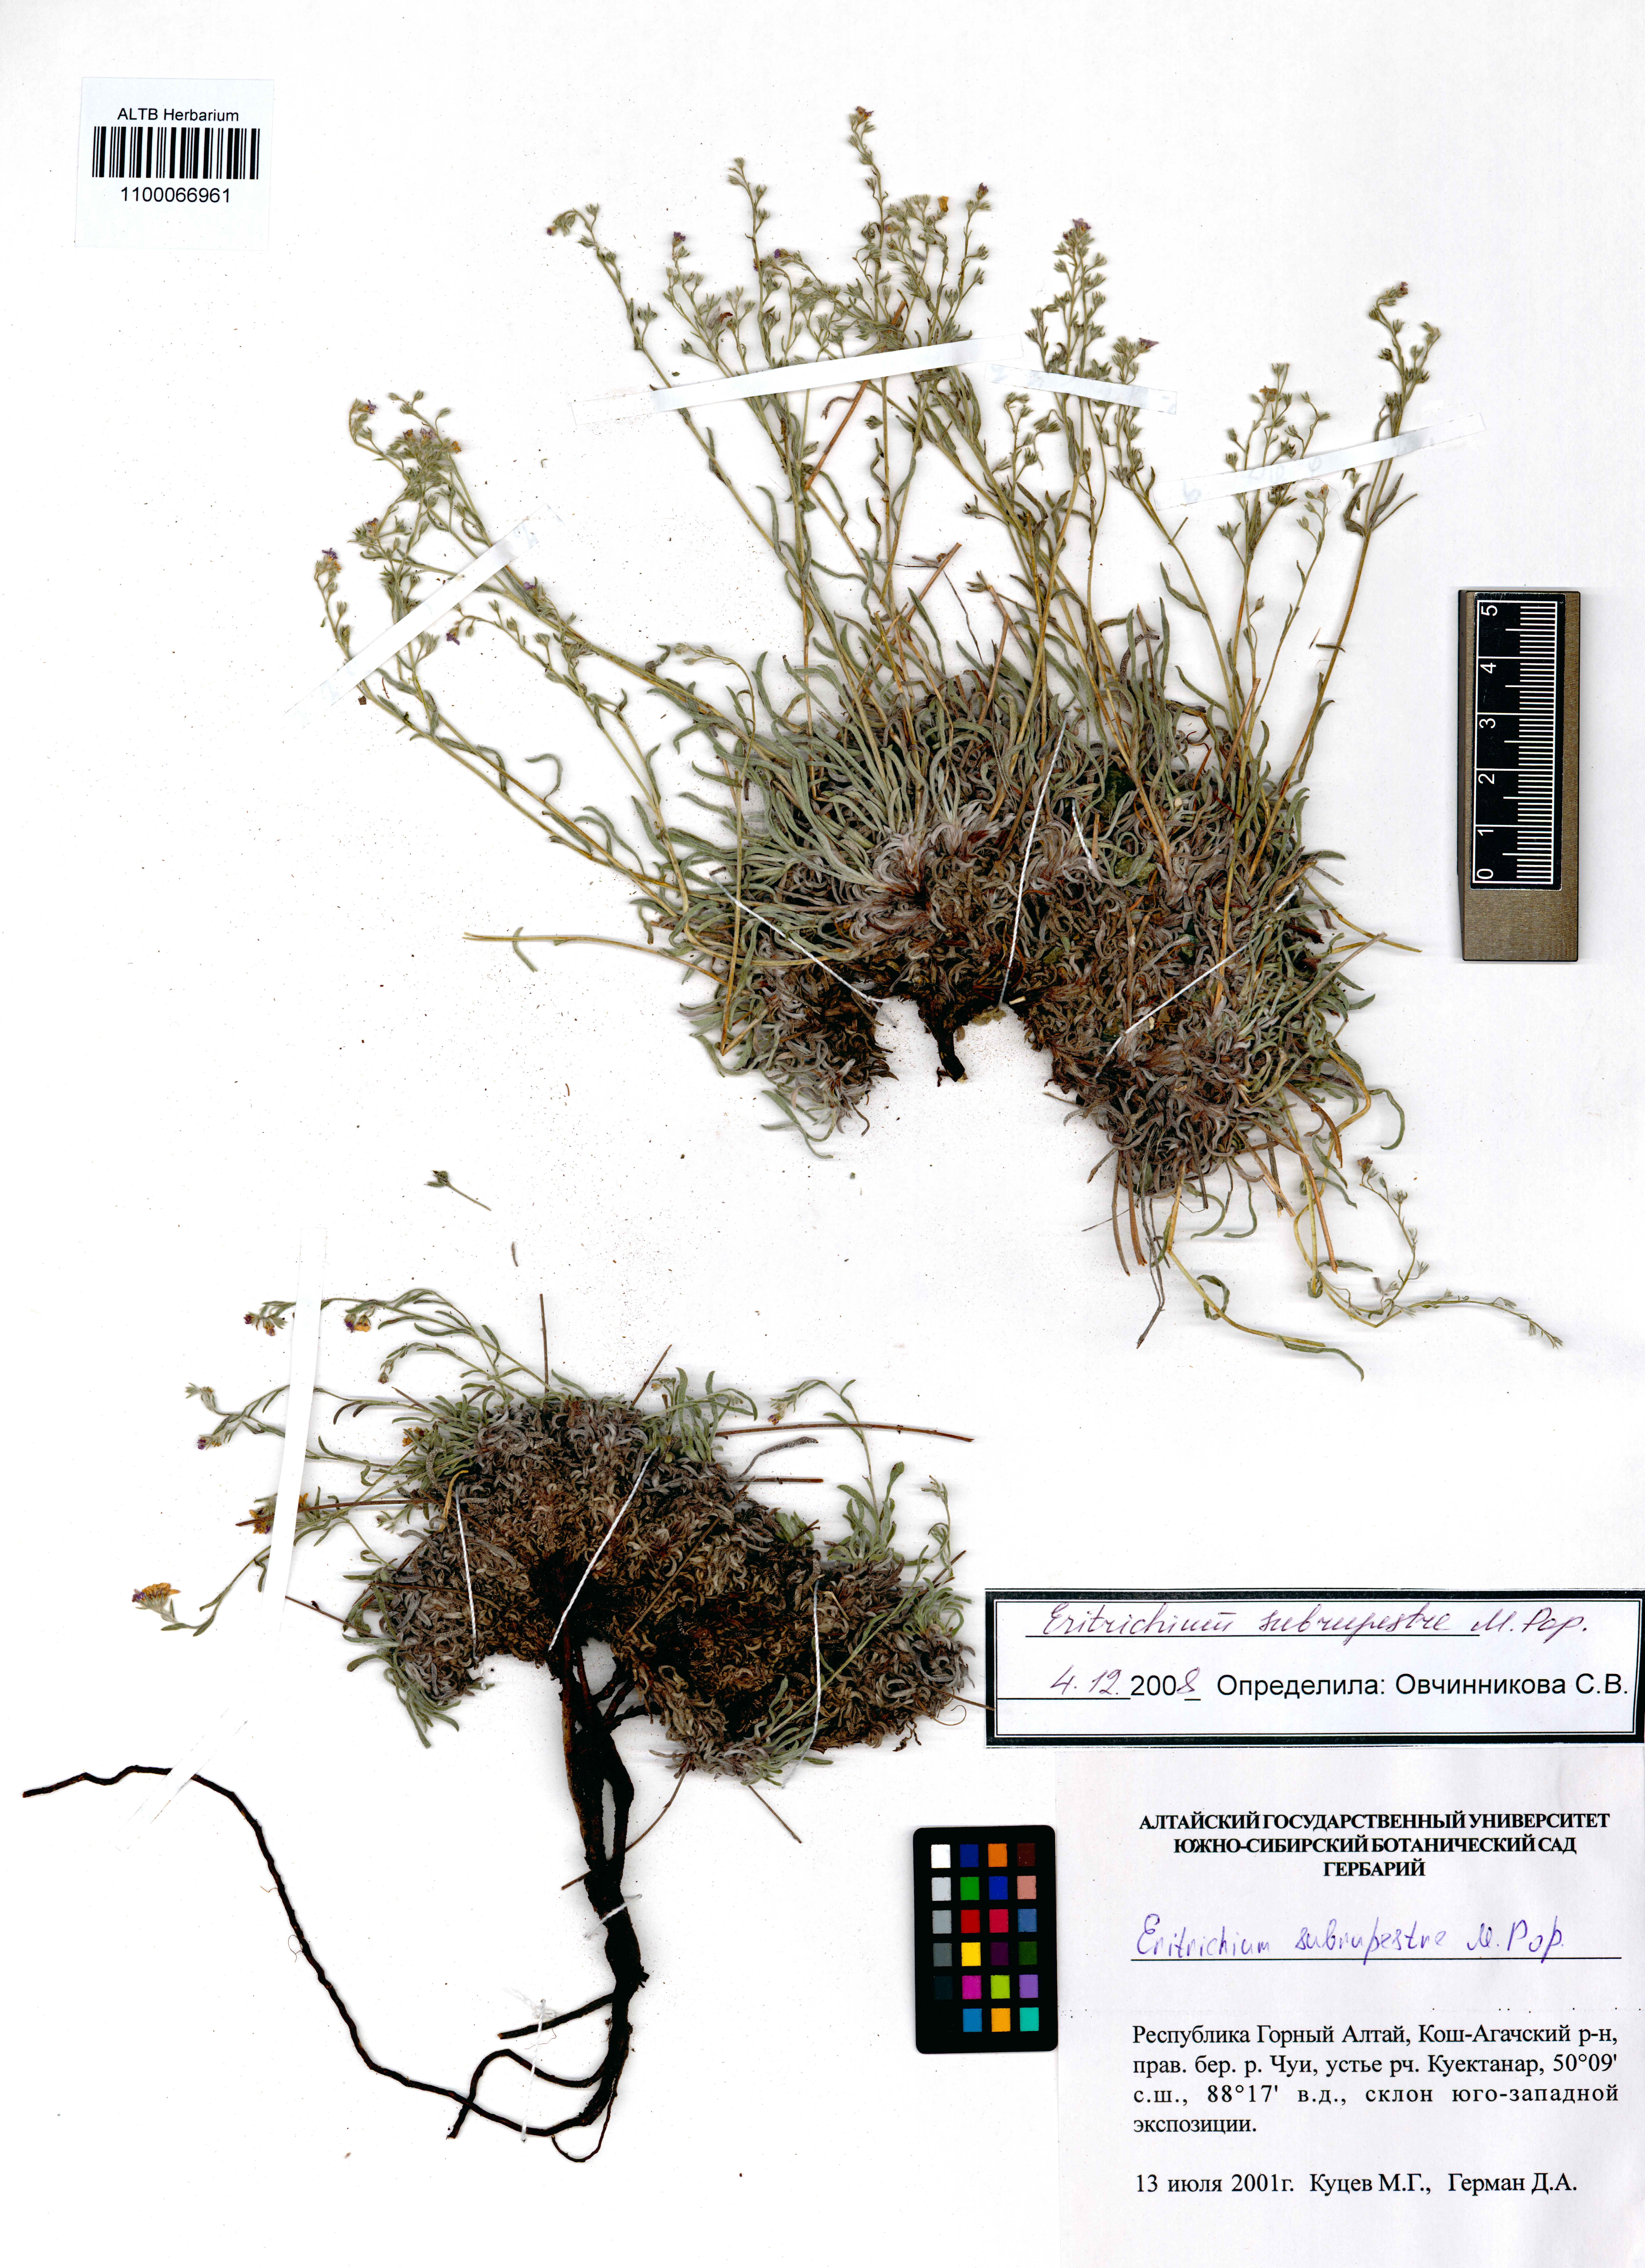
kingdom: Plantae
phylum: Tracheophyta
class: Magnoliopsida
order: Boraginales
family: Boraginaceae
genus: Eritrichium
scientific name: Eritrichium pauciflorum
